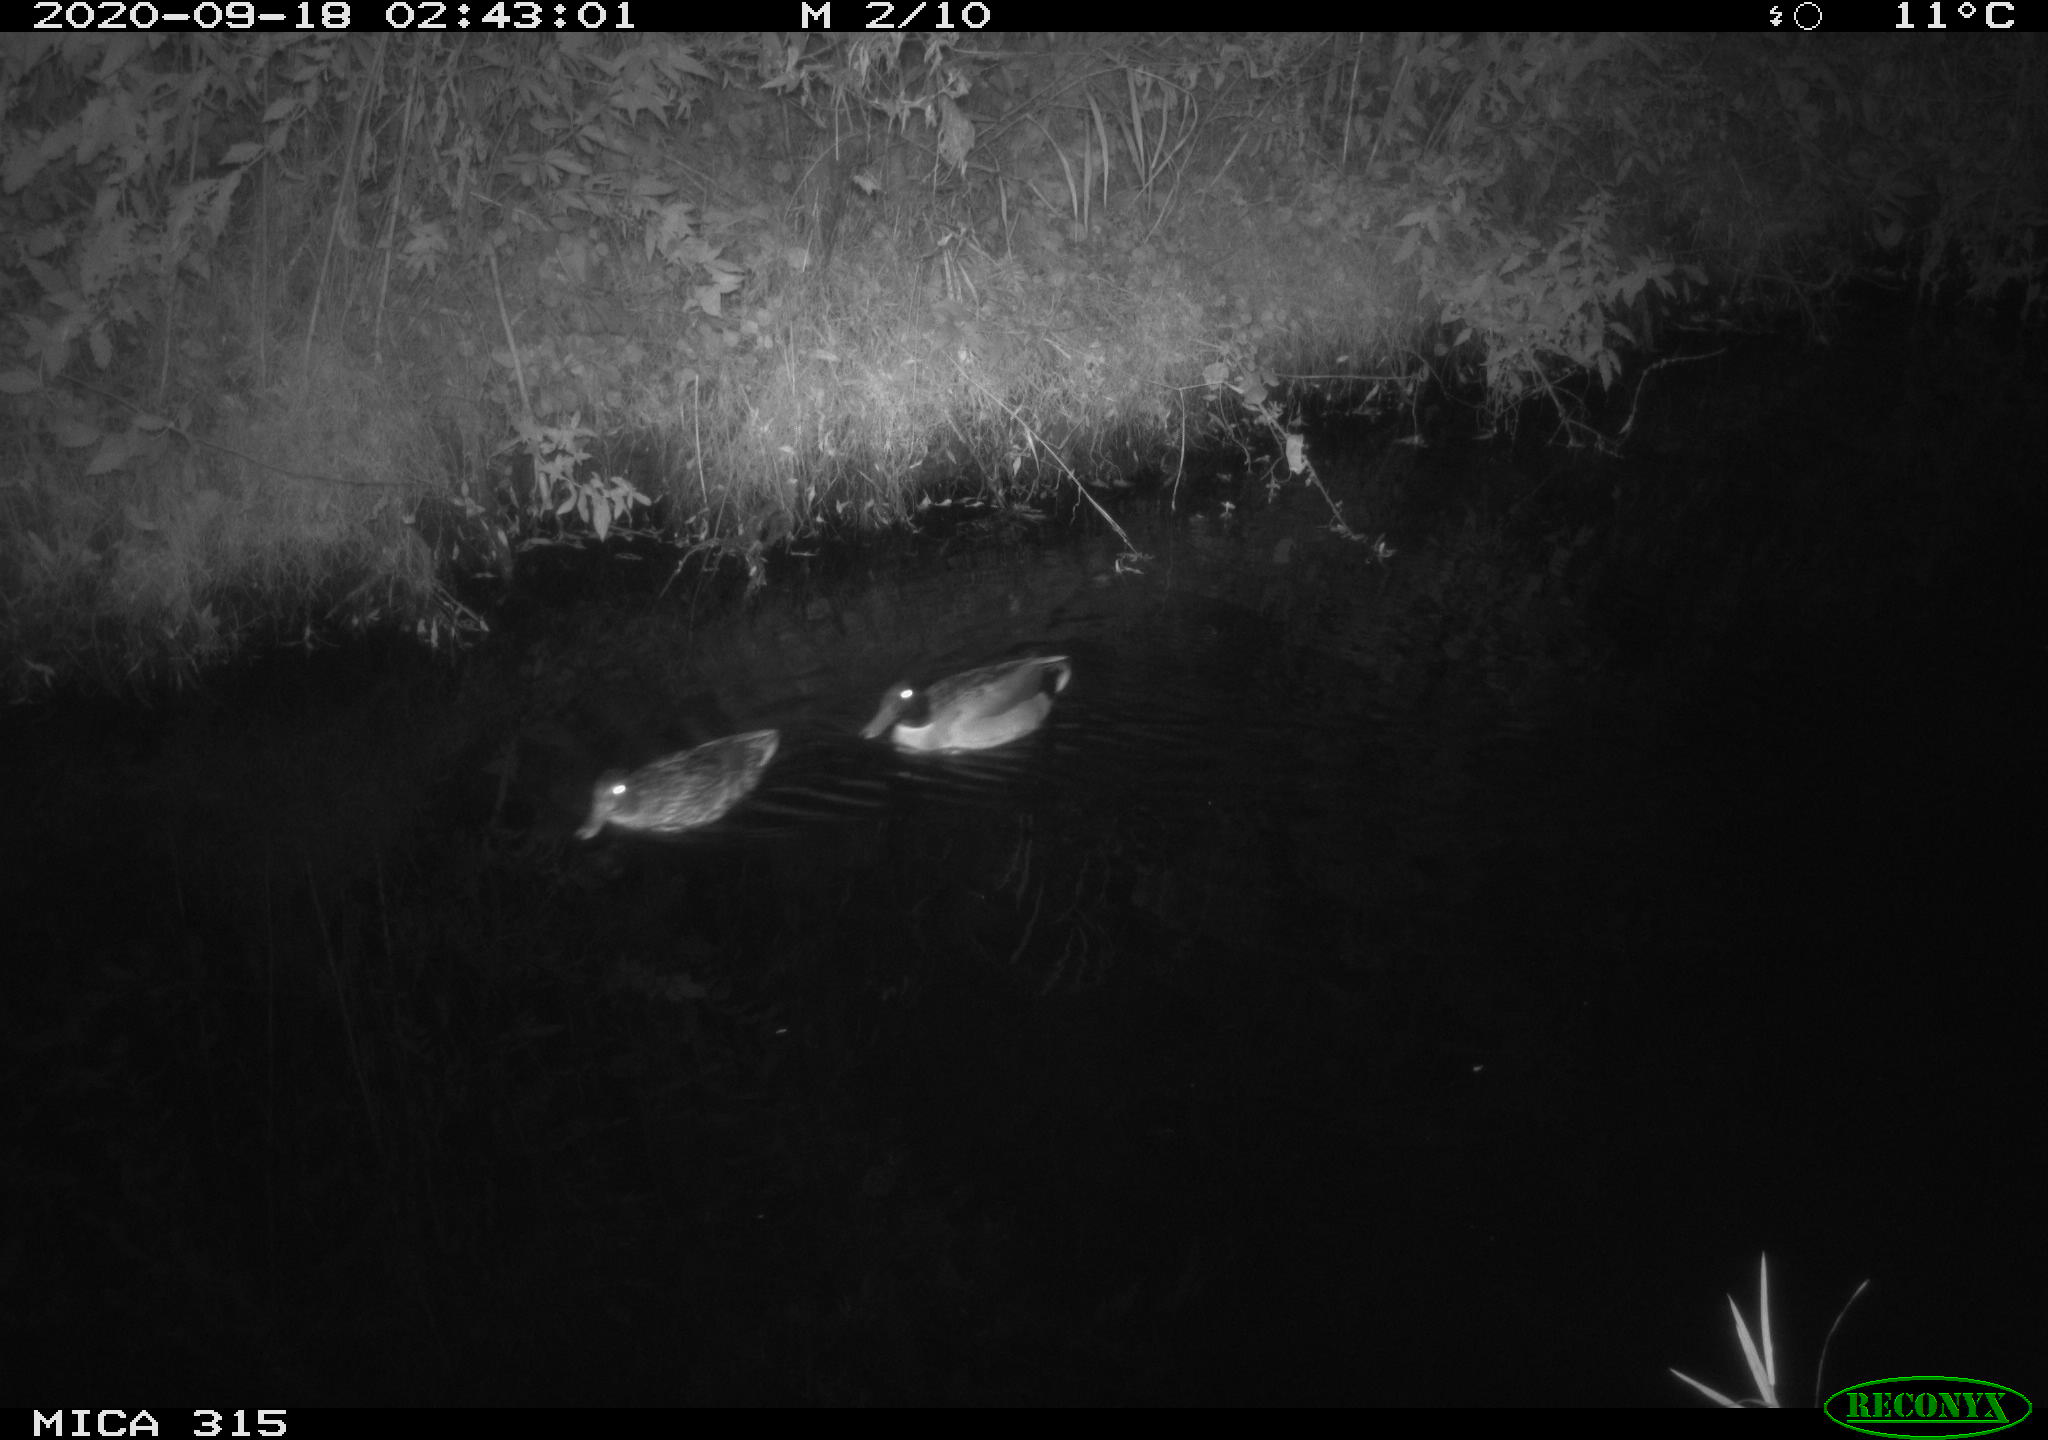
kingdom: Animalia
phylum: Chordata
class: Aves
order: Anseriformes
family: Anatidae
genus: Anas
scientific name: Anas platyrhynchos
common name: Mallard
